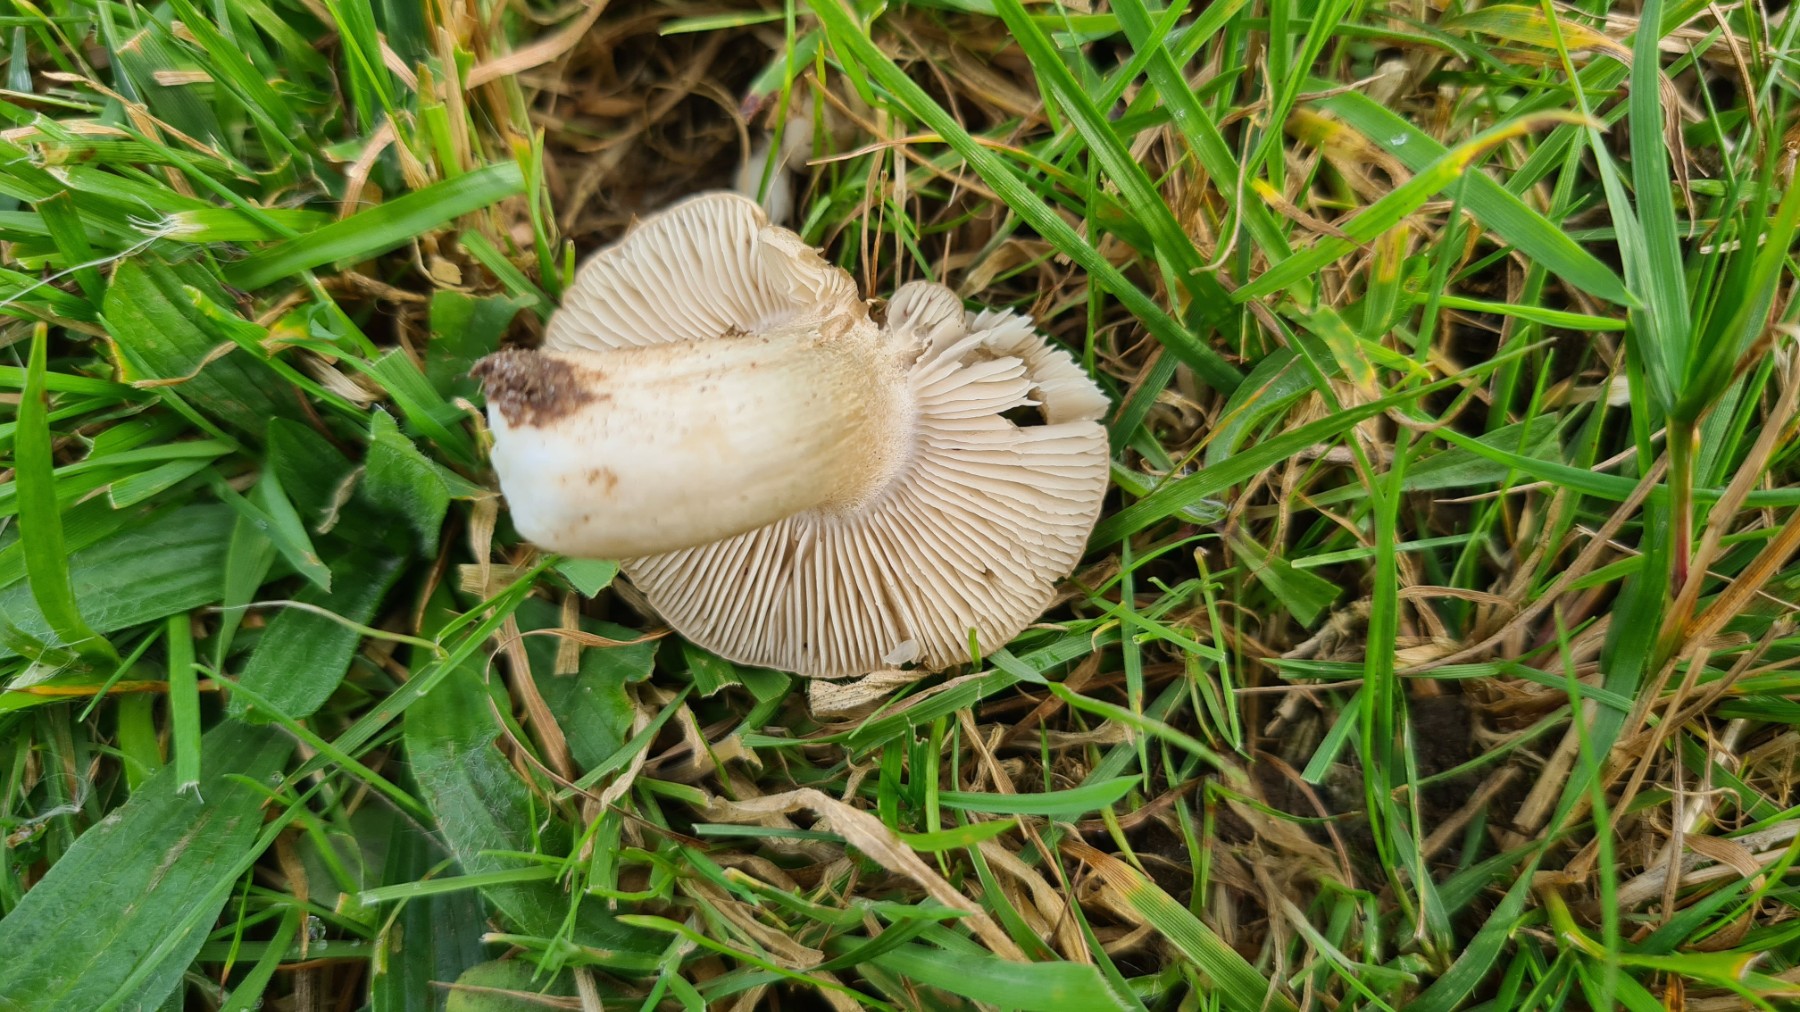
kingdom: Fungi
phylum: Basidiomycota
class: Agaricomycetes
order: Agaricales
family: Entolomataceae
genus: Entoloma
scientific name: Entoloma prunuloides
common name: mel-rødblad
